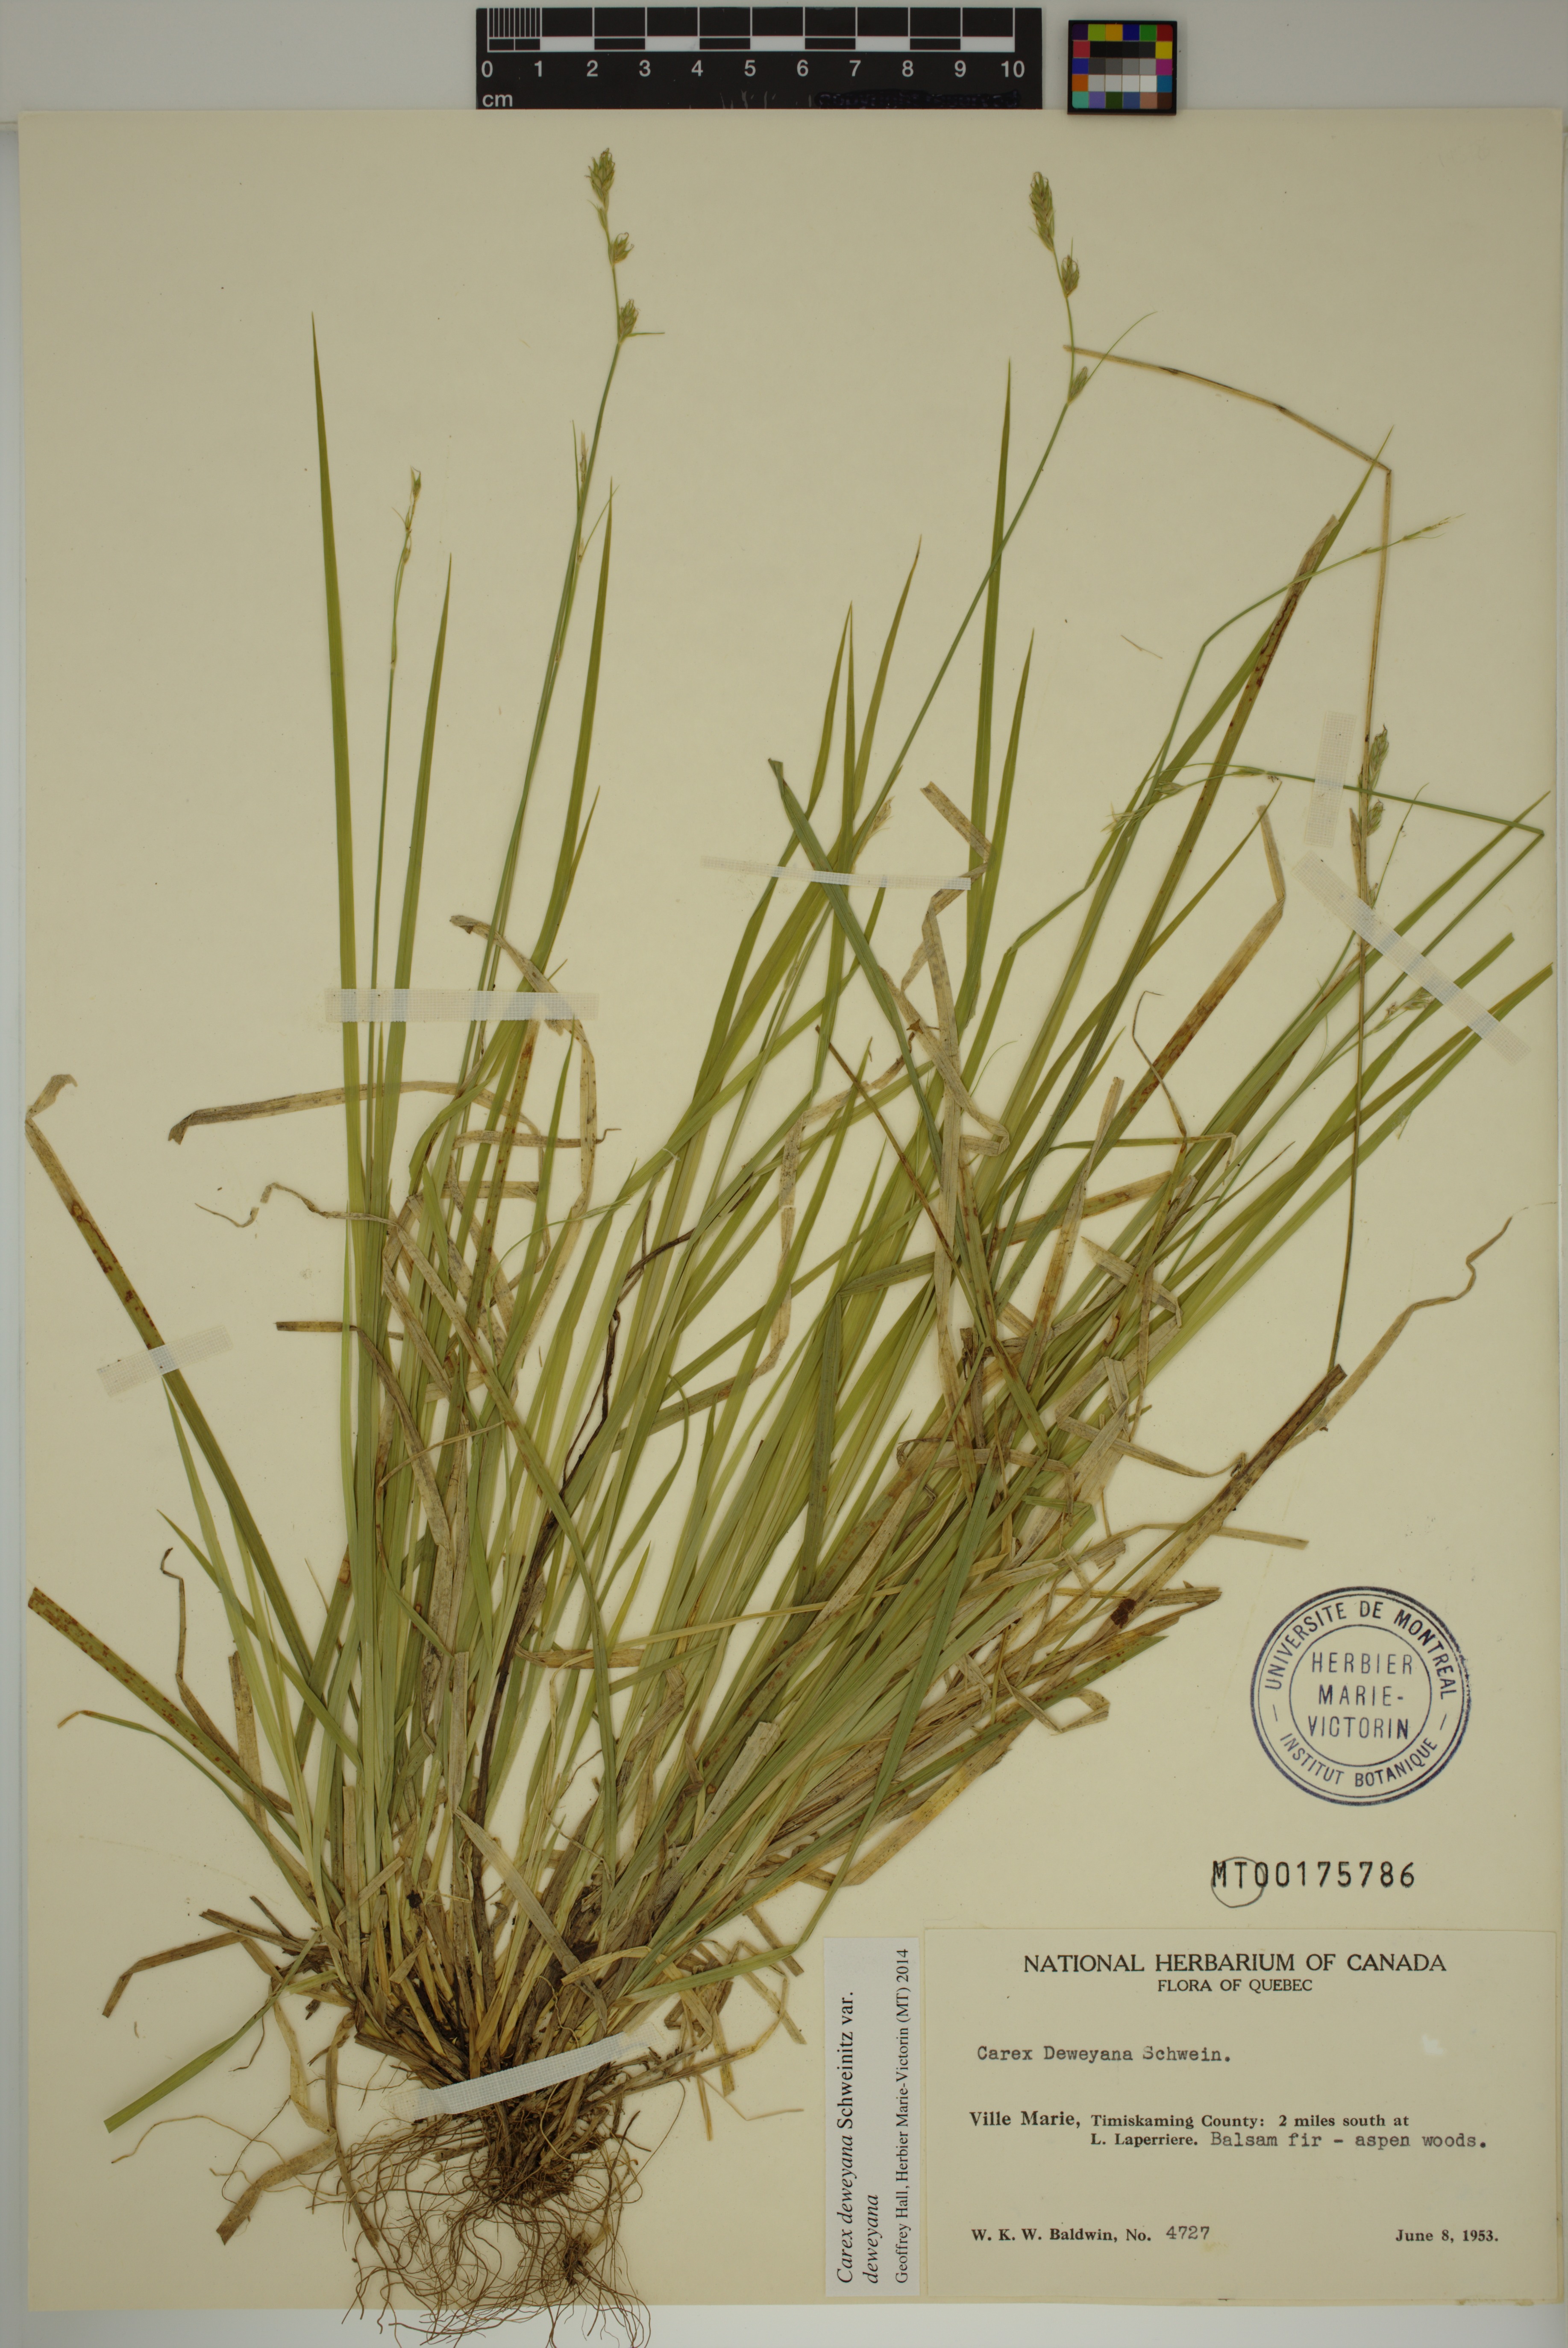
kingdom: Plantae
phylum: Tracheophyta
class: Liliopsida
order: Poales
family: Cyperaceae
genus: Carex
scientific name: Carex deweyana
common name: Dewey's sedge
